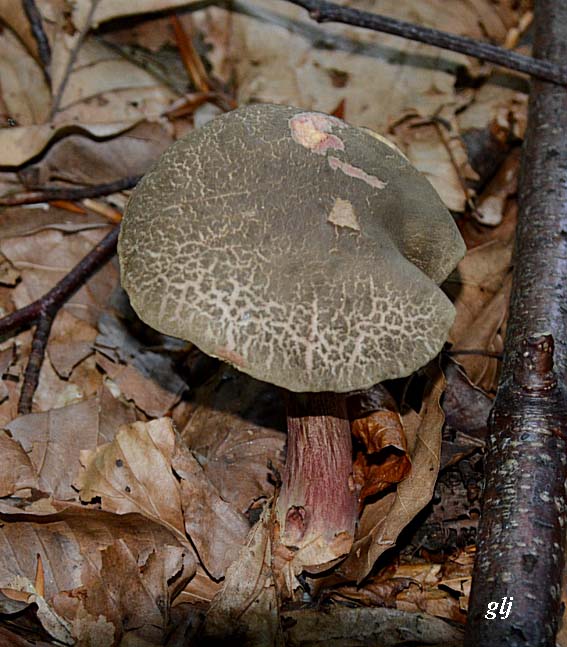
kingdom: Fungi
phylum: Basidiomycota
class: Agaricomycetes
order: Boletales
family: Boletaceae
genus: Xerocomellus
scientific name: Xerocomellus chrysenteron
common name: rødsprukken rørhat
